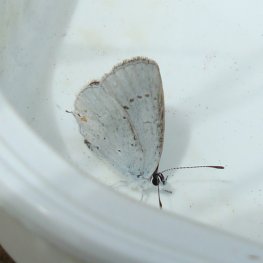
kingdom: Animalia
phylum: Arthropoda
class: Insecta
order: Lepidoptera
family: Lycaenidae
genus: Elkalyce
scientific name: Elkalyce amyntula
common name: Western Tailed-Blue
